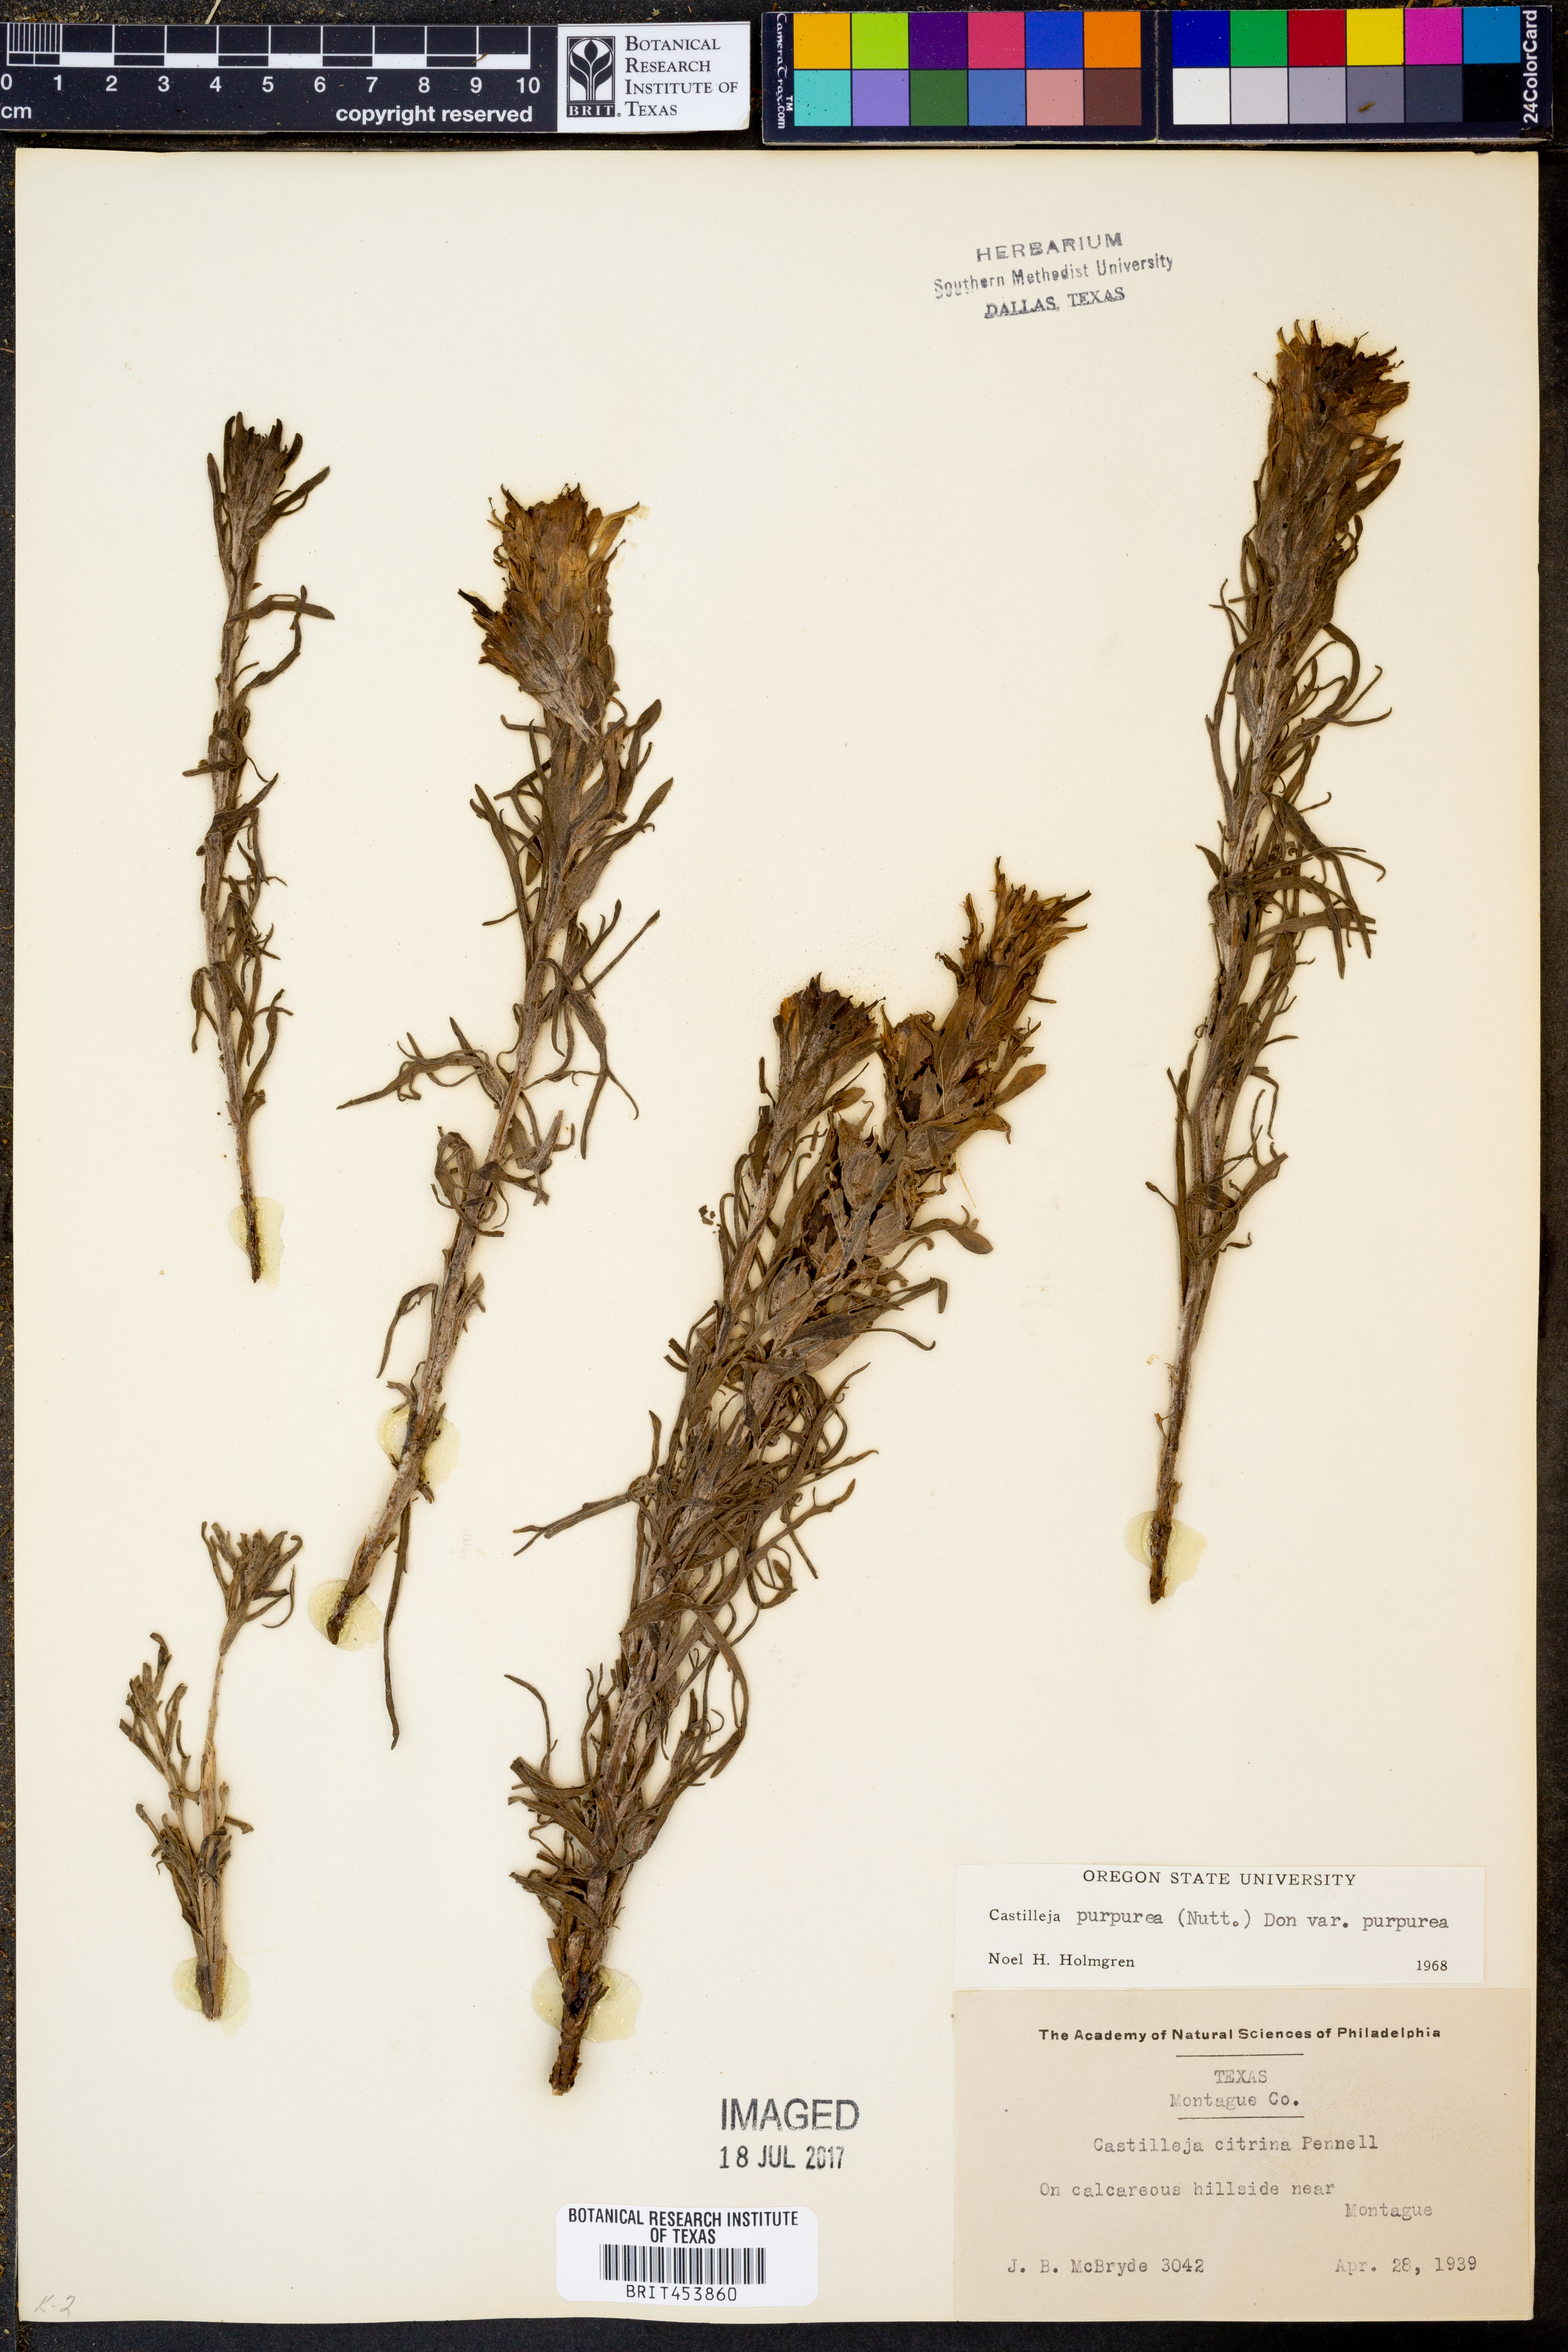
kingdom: Plantae
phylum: Tracheophyta
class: Magnoliopsida
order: Lamiales
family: Orobanchaceae
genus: Castilleja
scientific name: Castilleja purpurea
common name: Plains paintbrush
